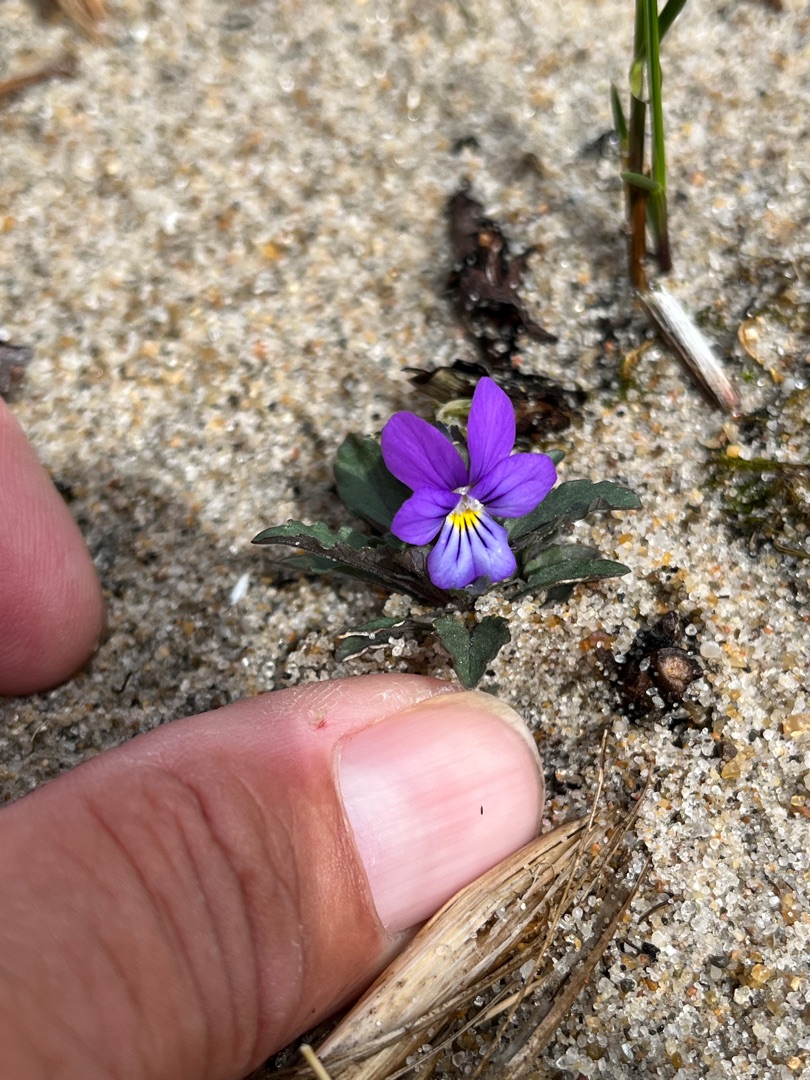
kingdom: Plantae
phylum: Tracheophyta
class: Magnoliopsida
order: Malpighiales
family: Violaceae
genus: Viola
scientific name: Viola tricolor
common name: Klit-stedmoderblomst
